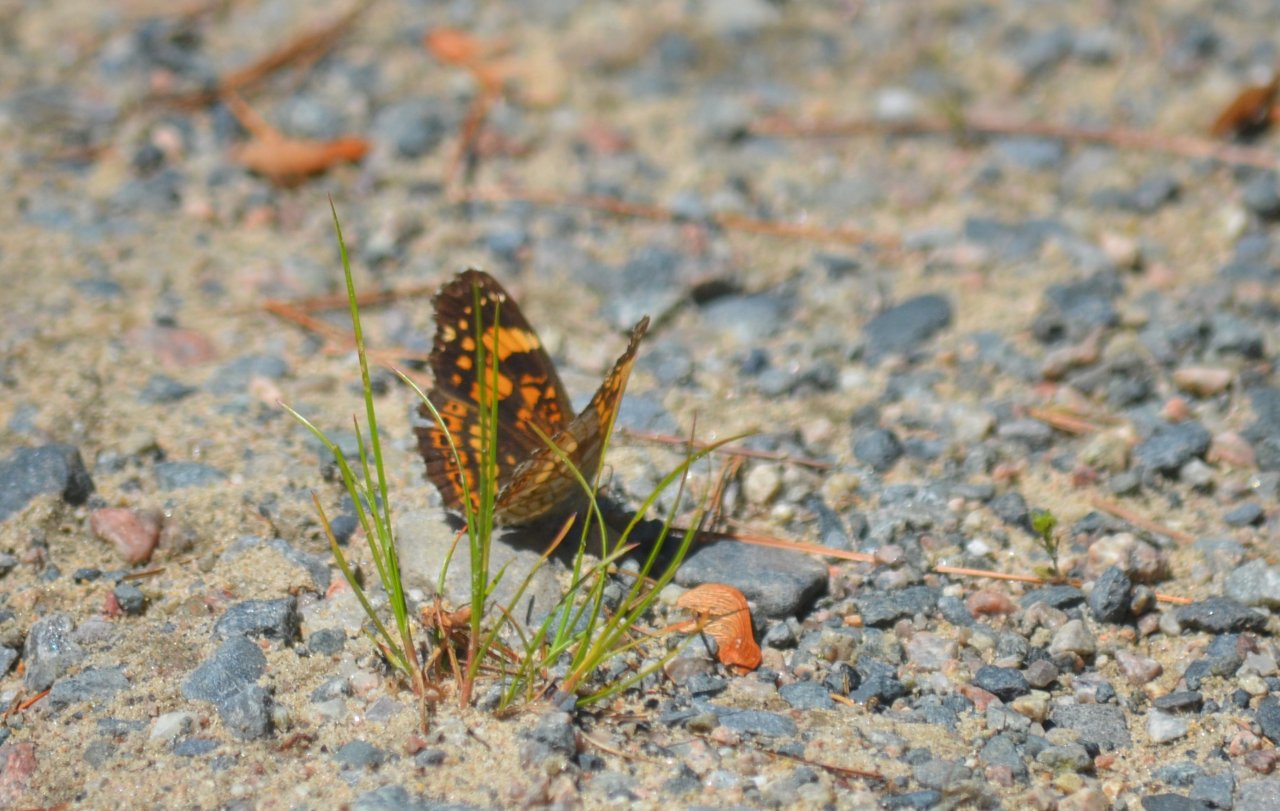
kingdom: Animalia
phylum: Arthropoda
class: Insecta
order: Lepidoptera
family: Nymphalidae
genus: Chlosyne
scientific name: Chlosyne nycteis
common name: Silvery Checkerspot
